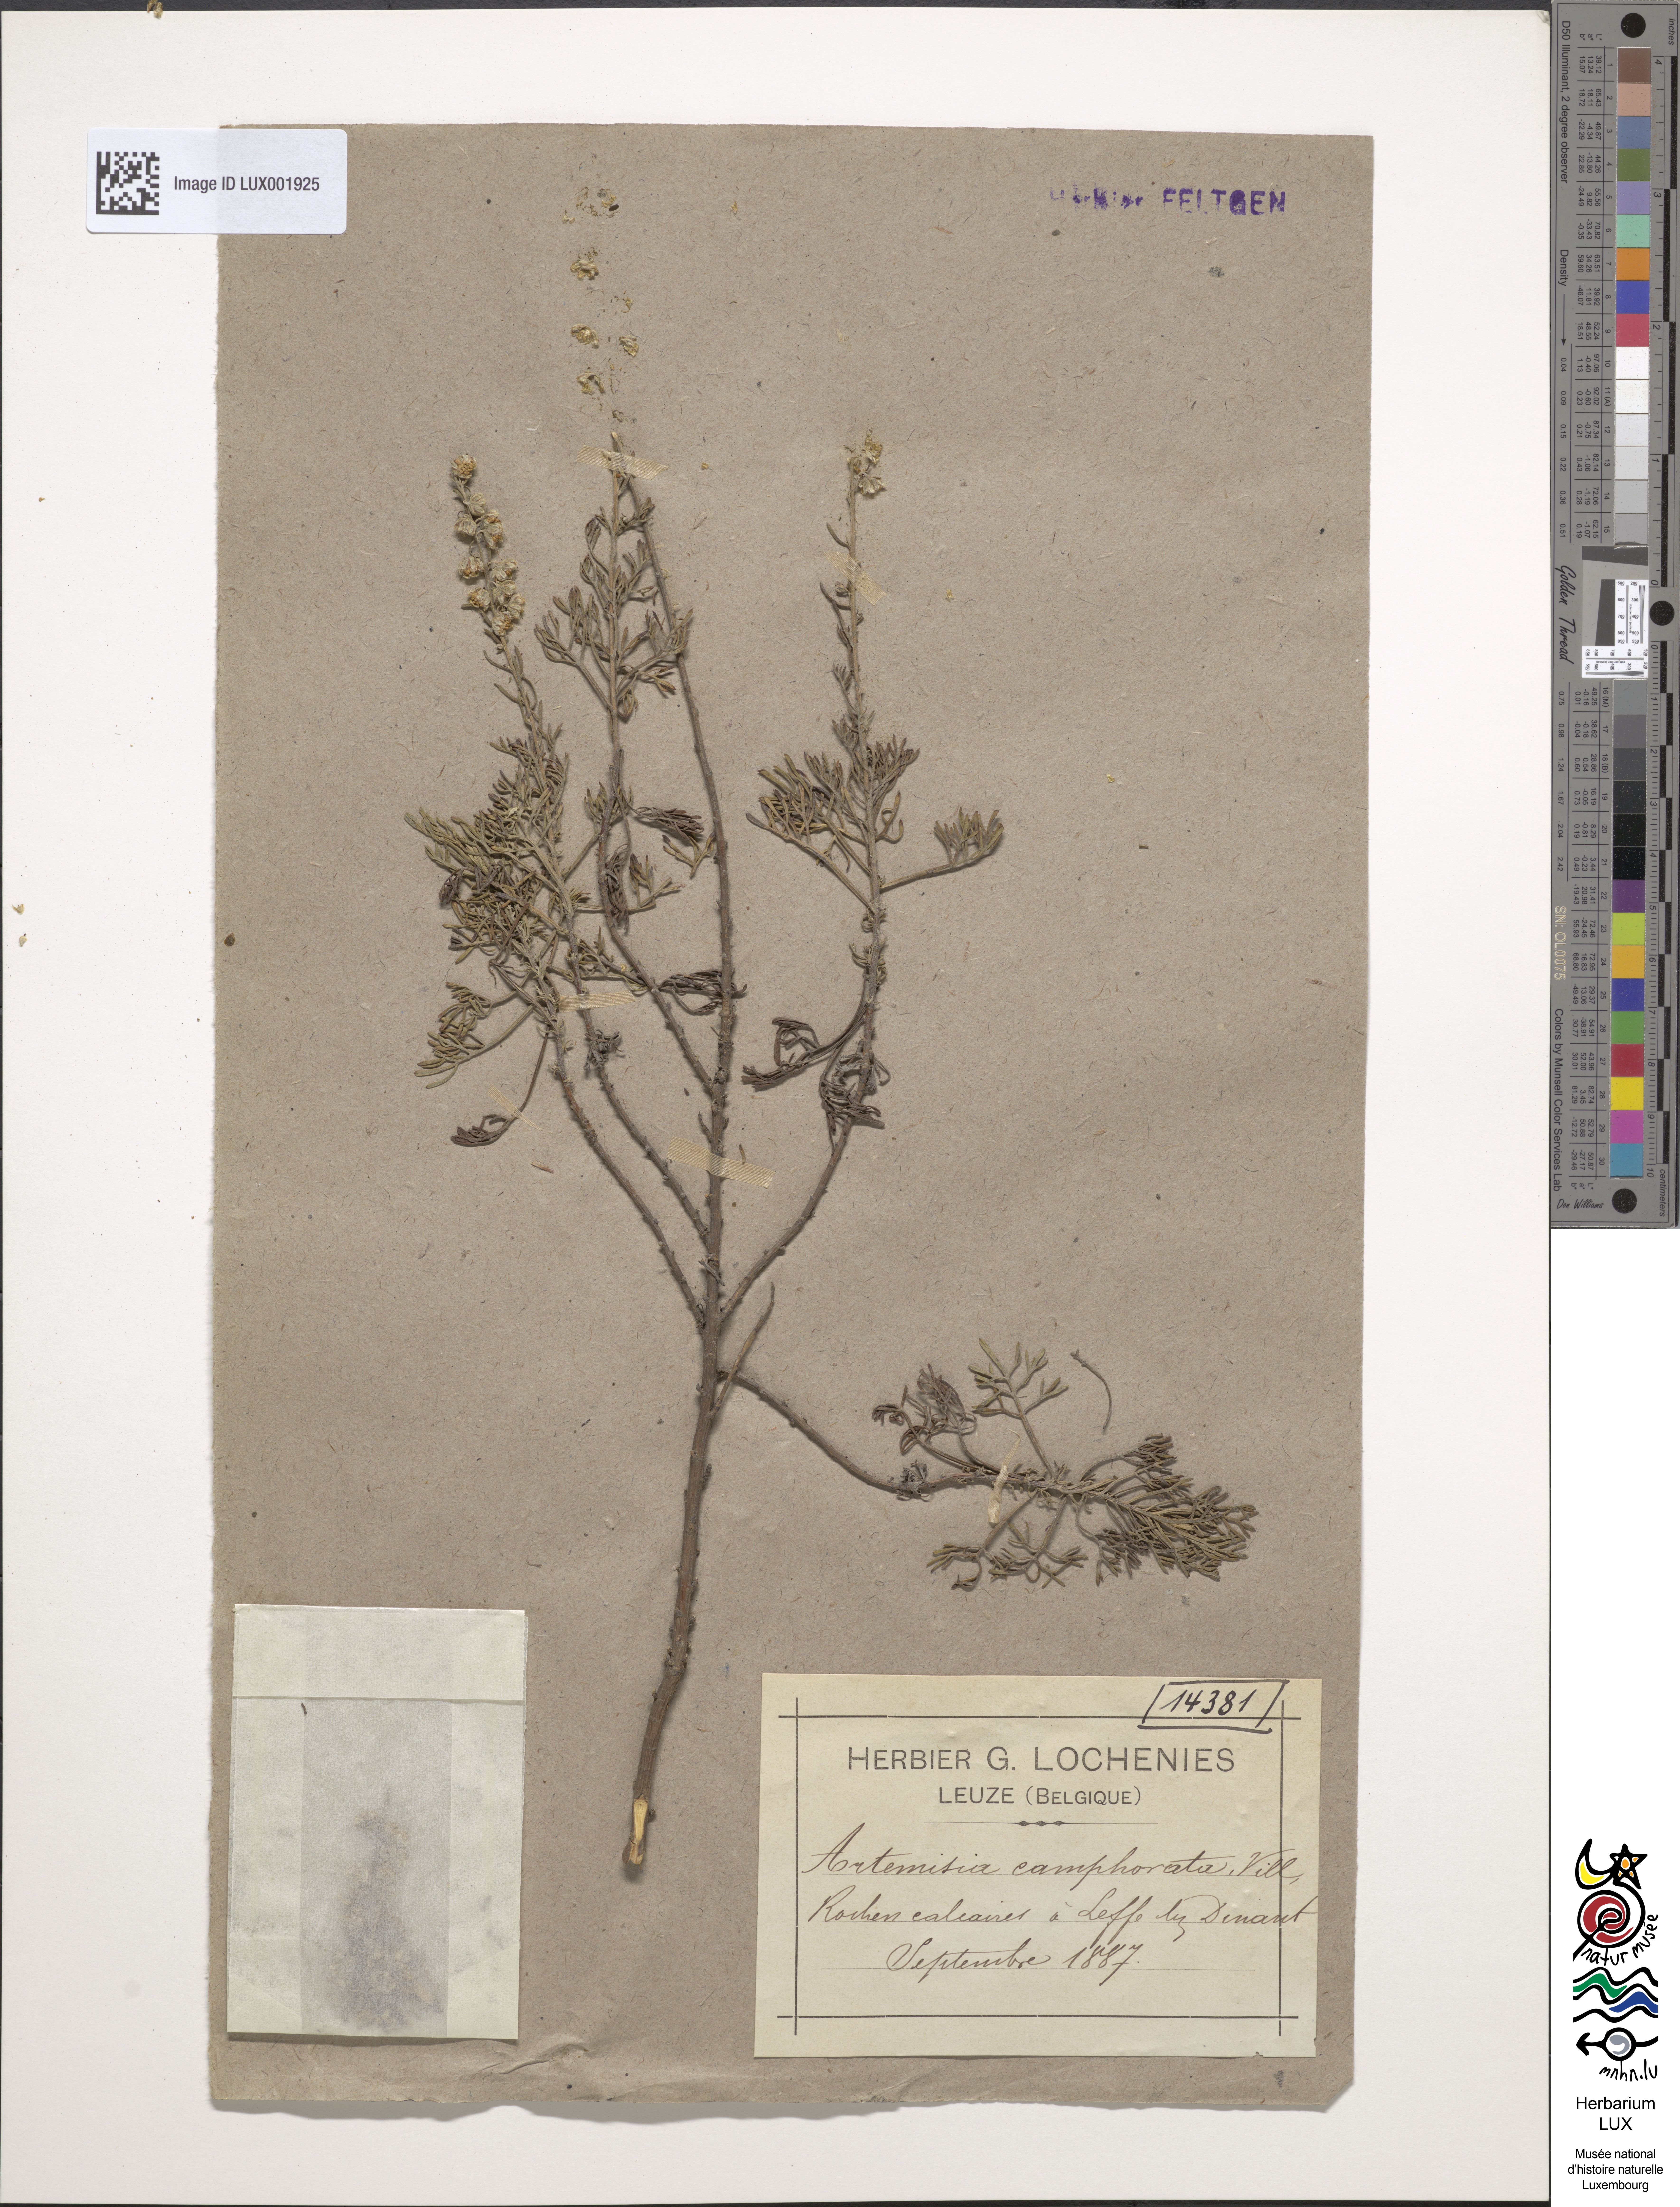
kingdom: Plantae
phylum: Tracheophyta
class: Magnoliopsida
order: Asterales
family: Asteraceae
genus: Artemisia
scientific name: Artemisia alba
